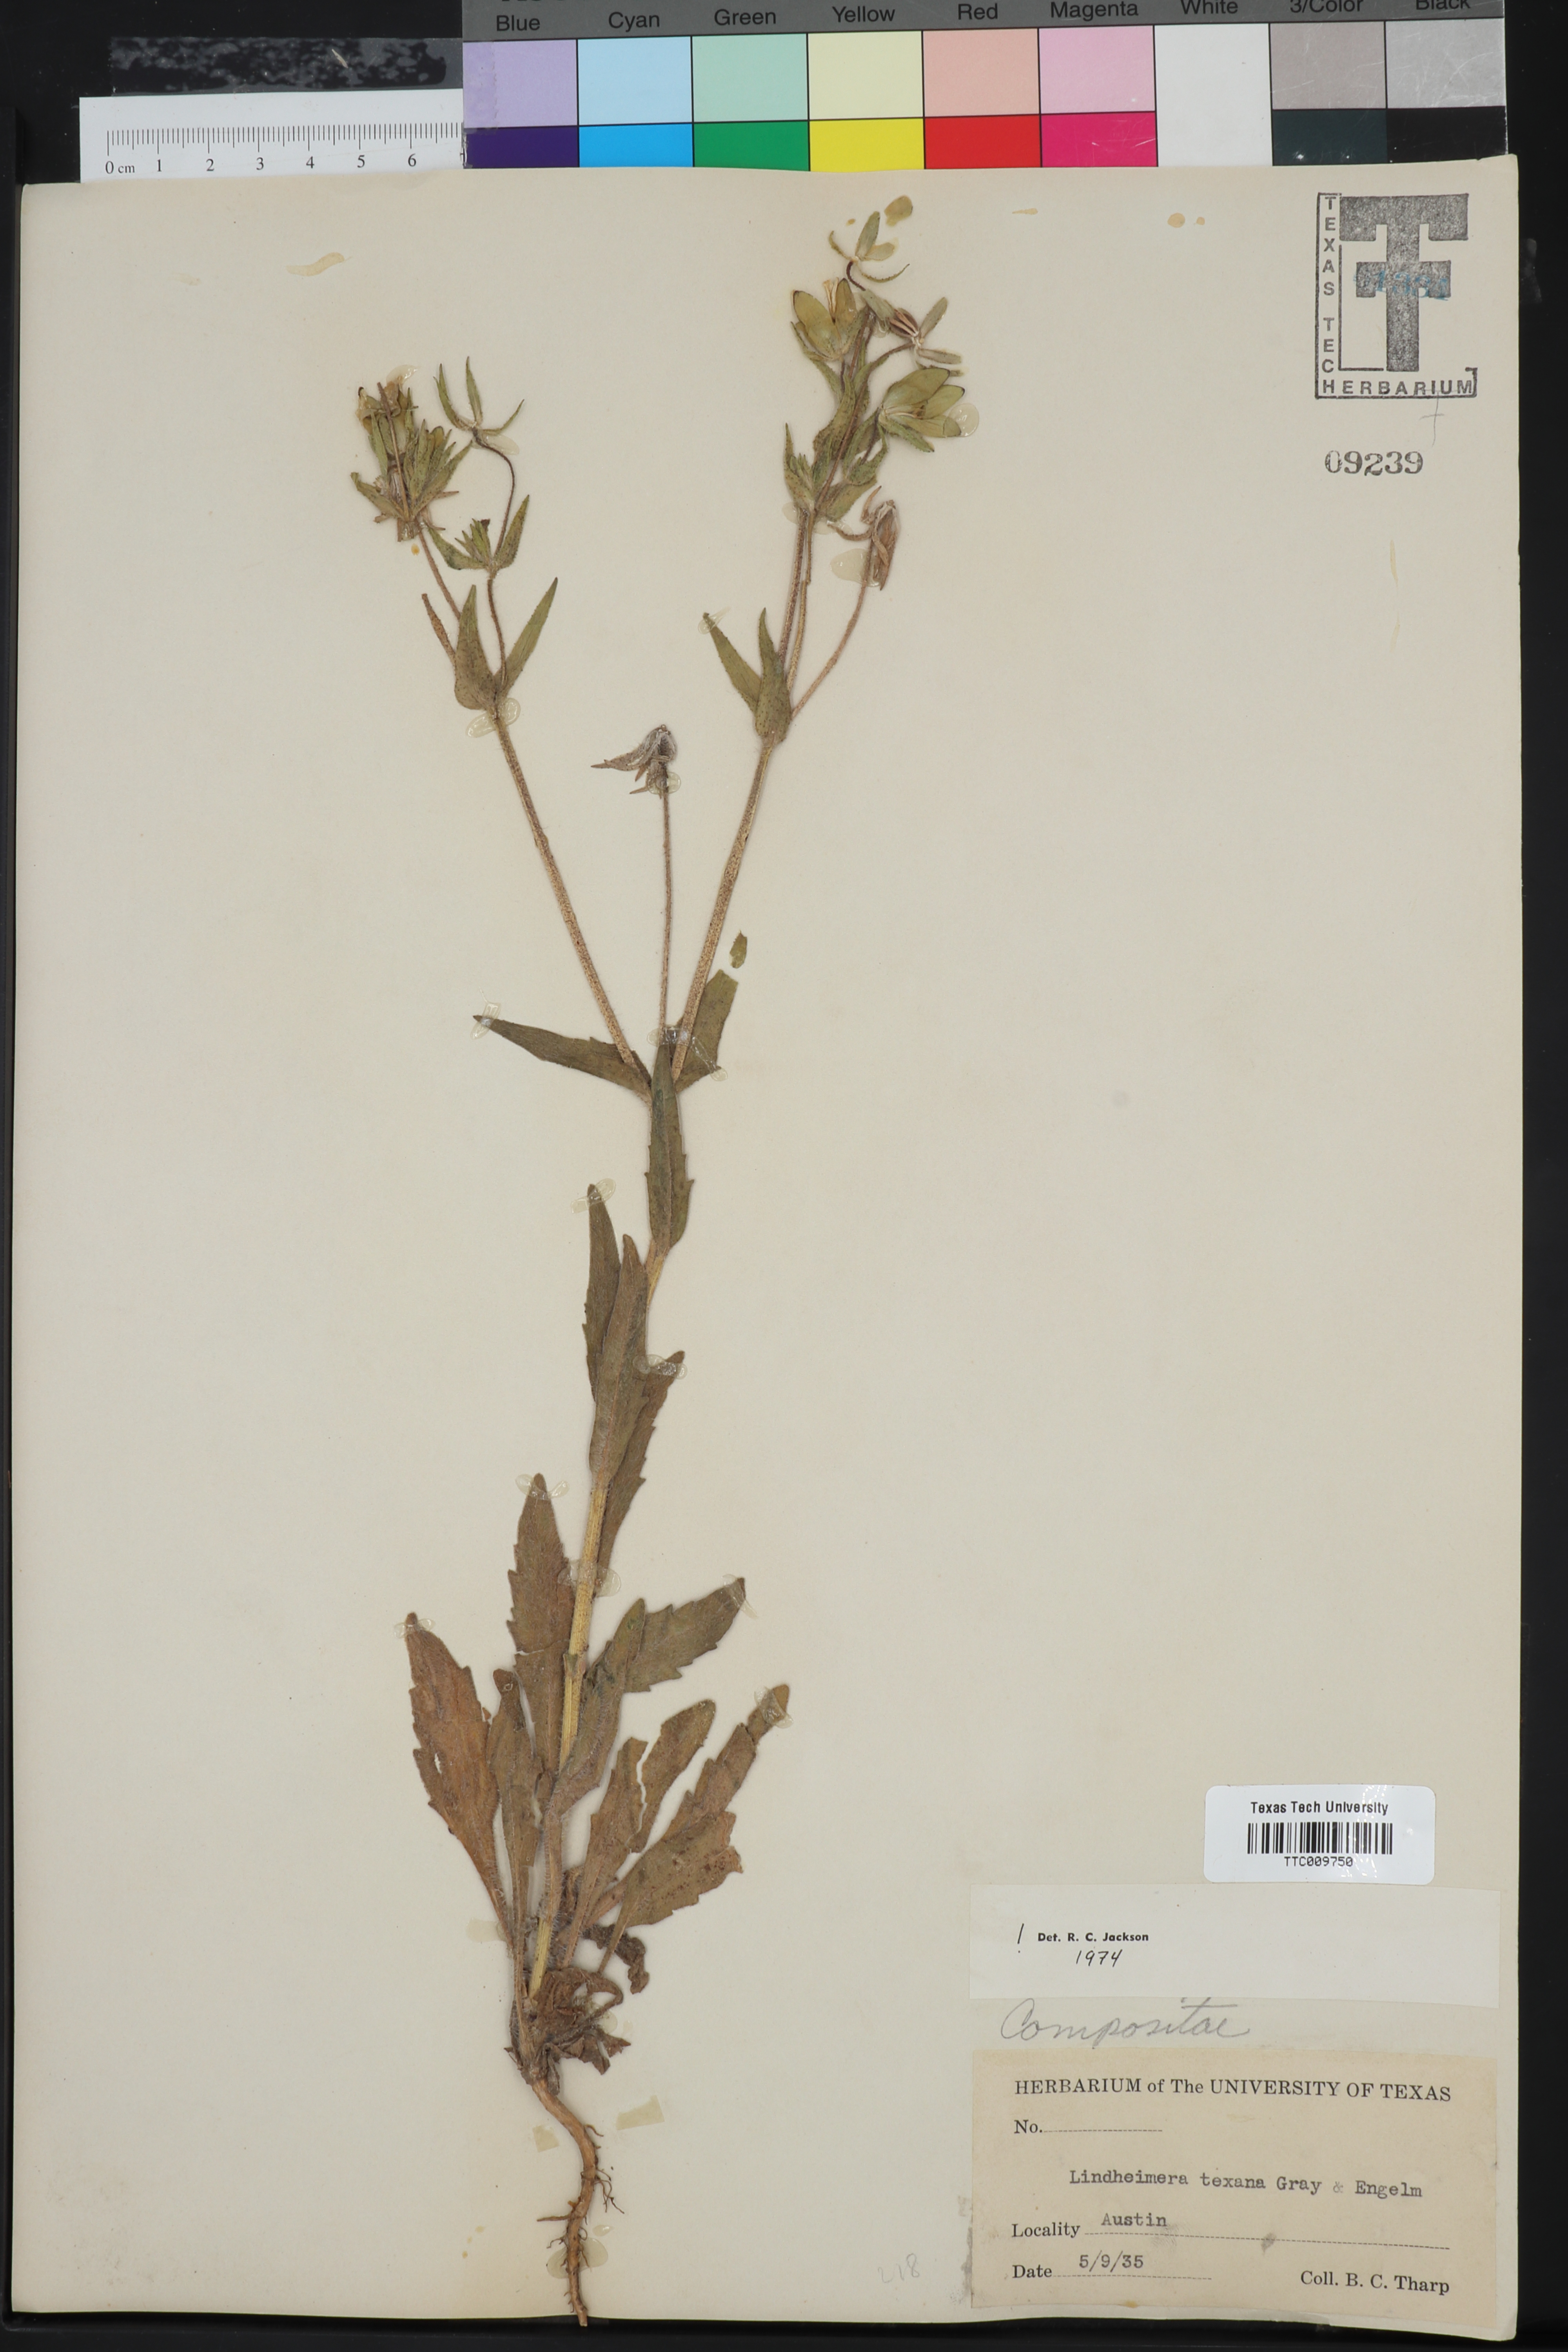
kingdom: Plantae
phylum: Tracheophyta
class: Magnoliopsida
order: Asterales
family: Asteraceae
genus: Lindheimera
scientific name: Lindheimera texana
